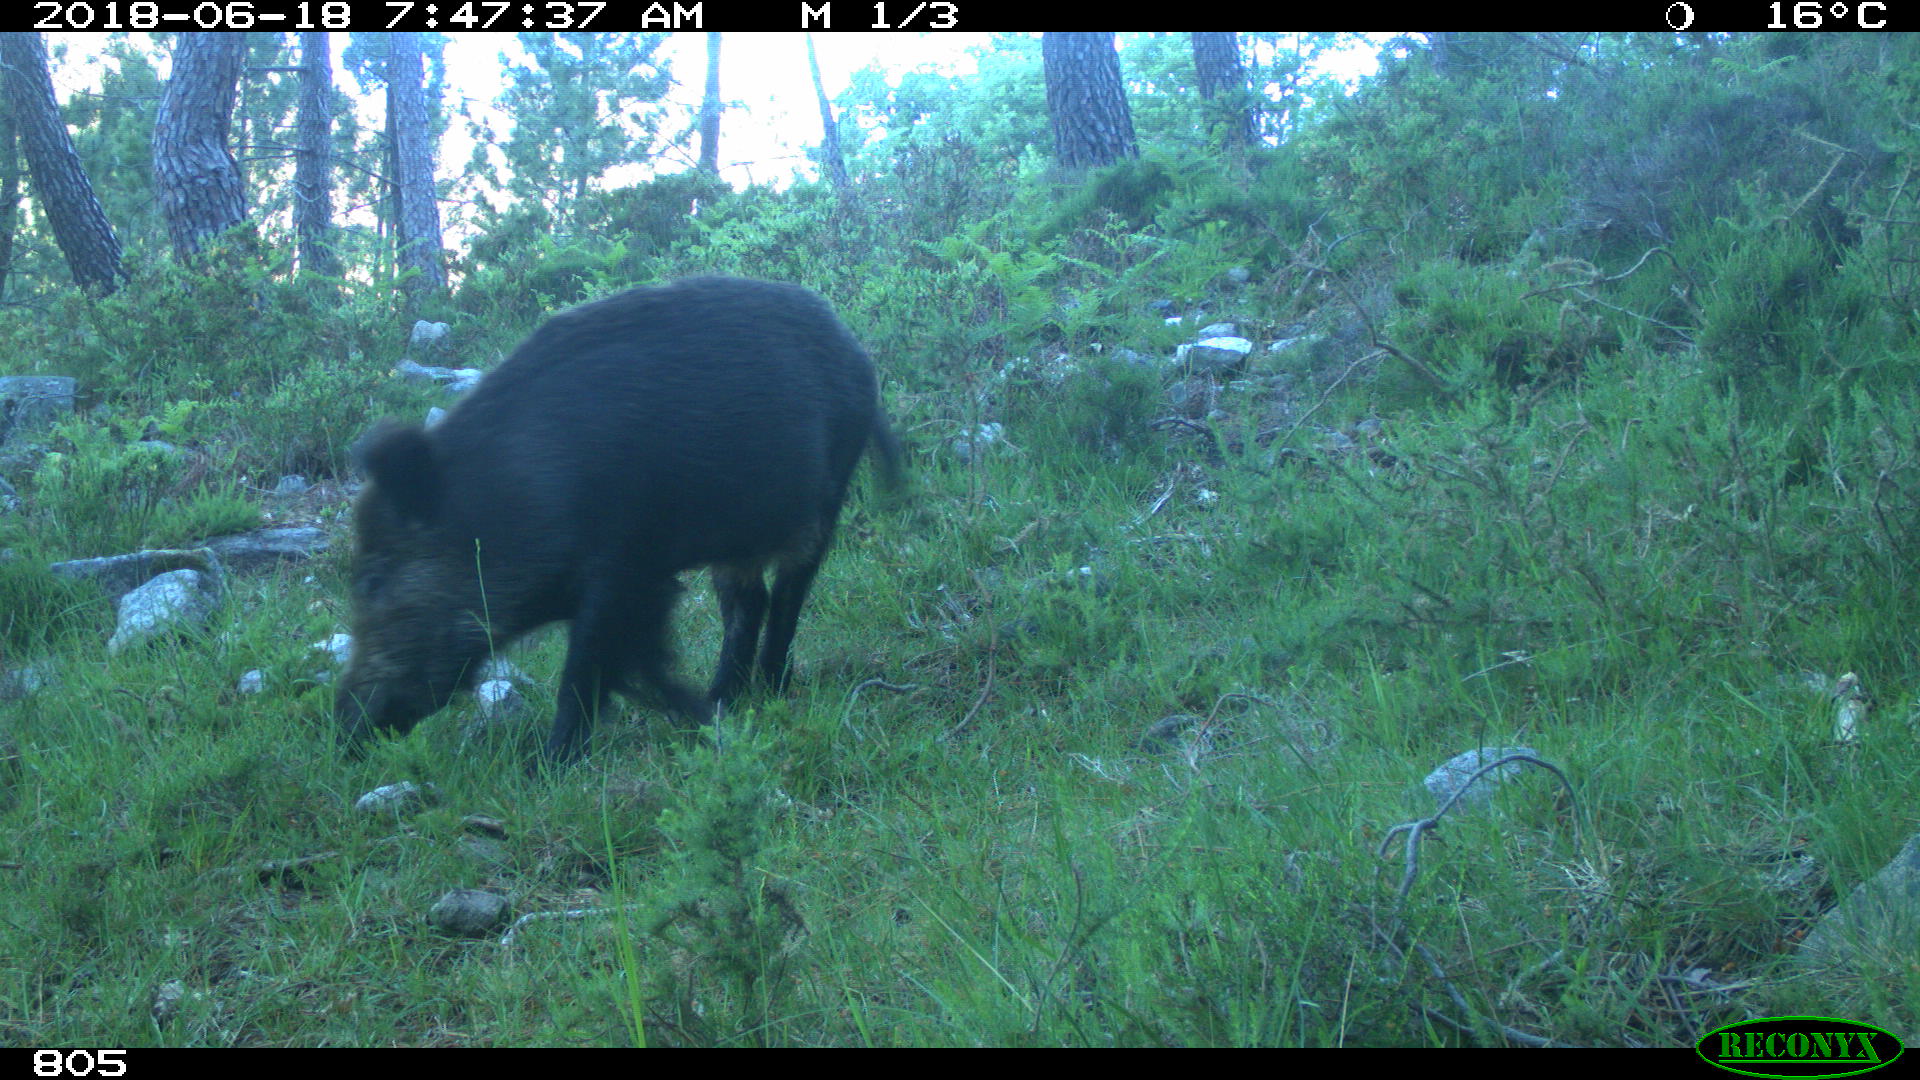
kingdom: Animalia
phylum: Chordata
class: Mammalia
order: Artiodactyla
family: Suidae
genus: Sus
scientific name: Sus scrofa
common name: Wild boar
